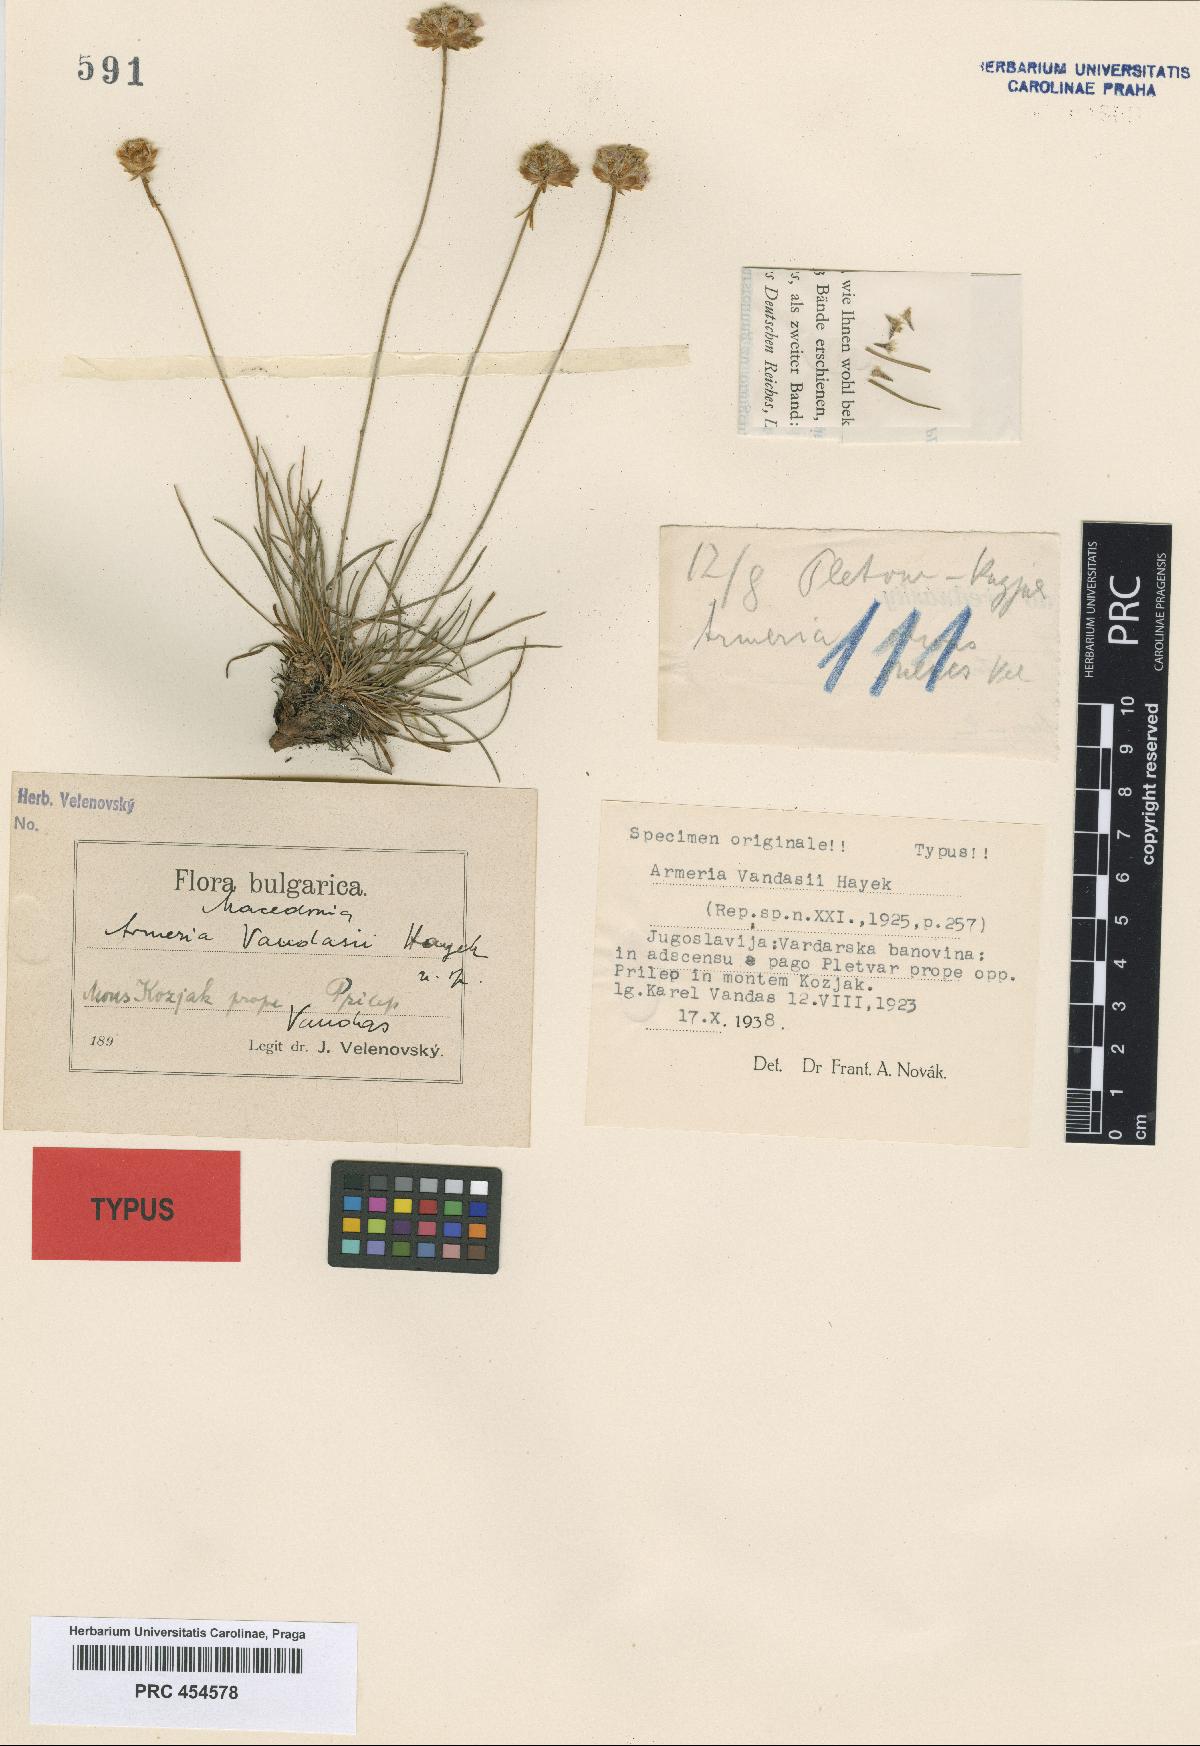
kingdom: Plantae
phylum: Tracheophyta
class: Magnoliopsida
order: Caryophyllales
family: Plumbaginaceae
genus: Armeria
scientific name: Armeria vandasii
